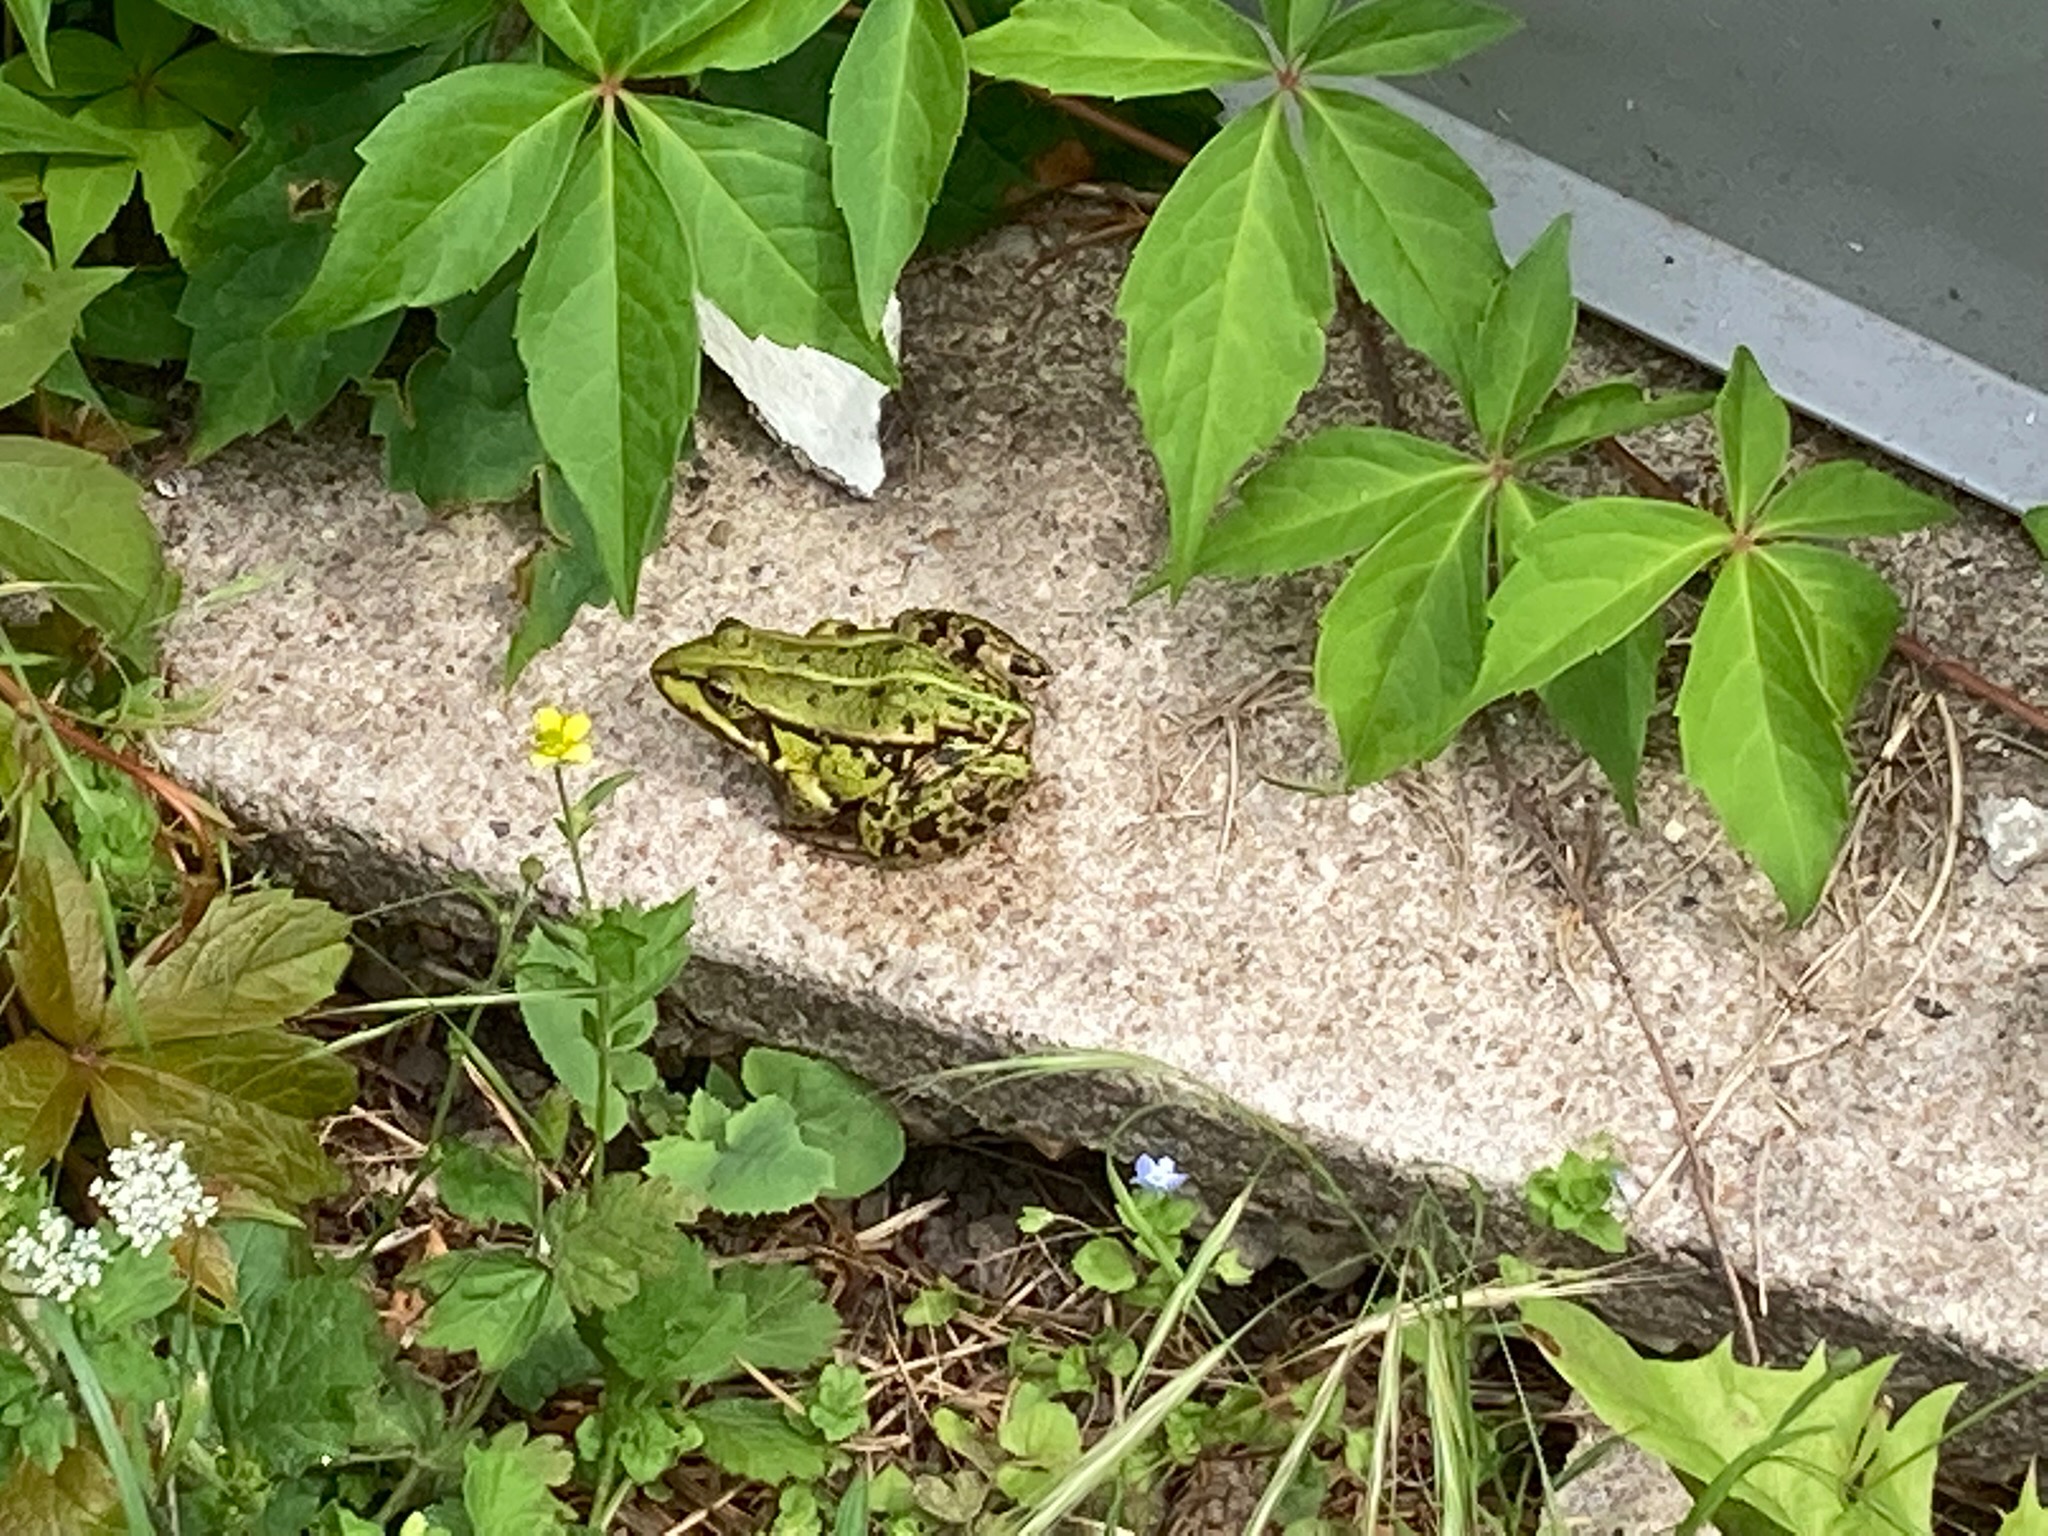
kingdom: Animalia
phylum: Chordata
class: Amphibia
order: Anura
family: Ranidae
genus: Pelophylax
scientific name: Pelophylax lessonae
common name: Grøn frø
